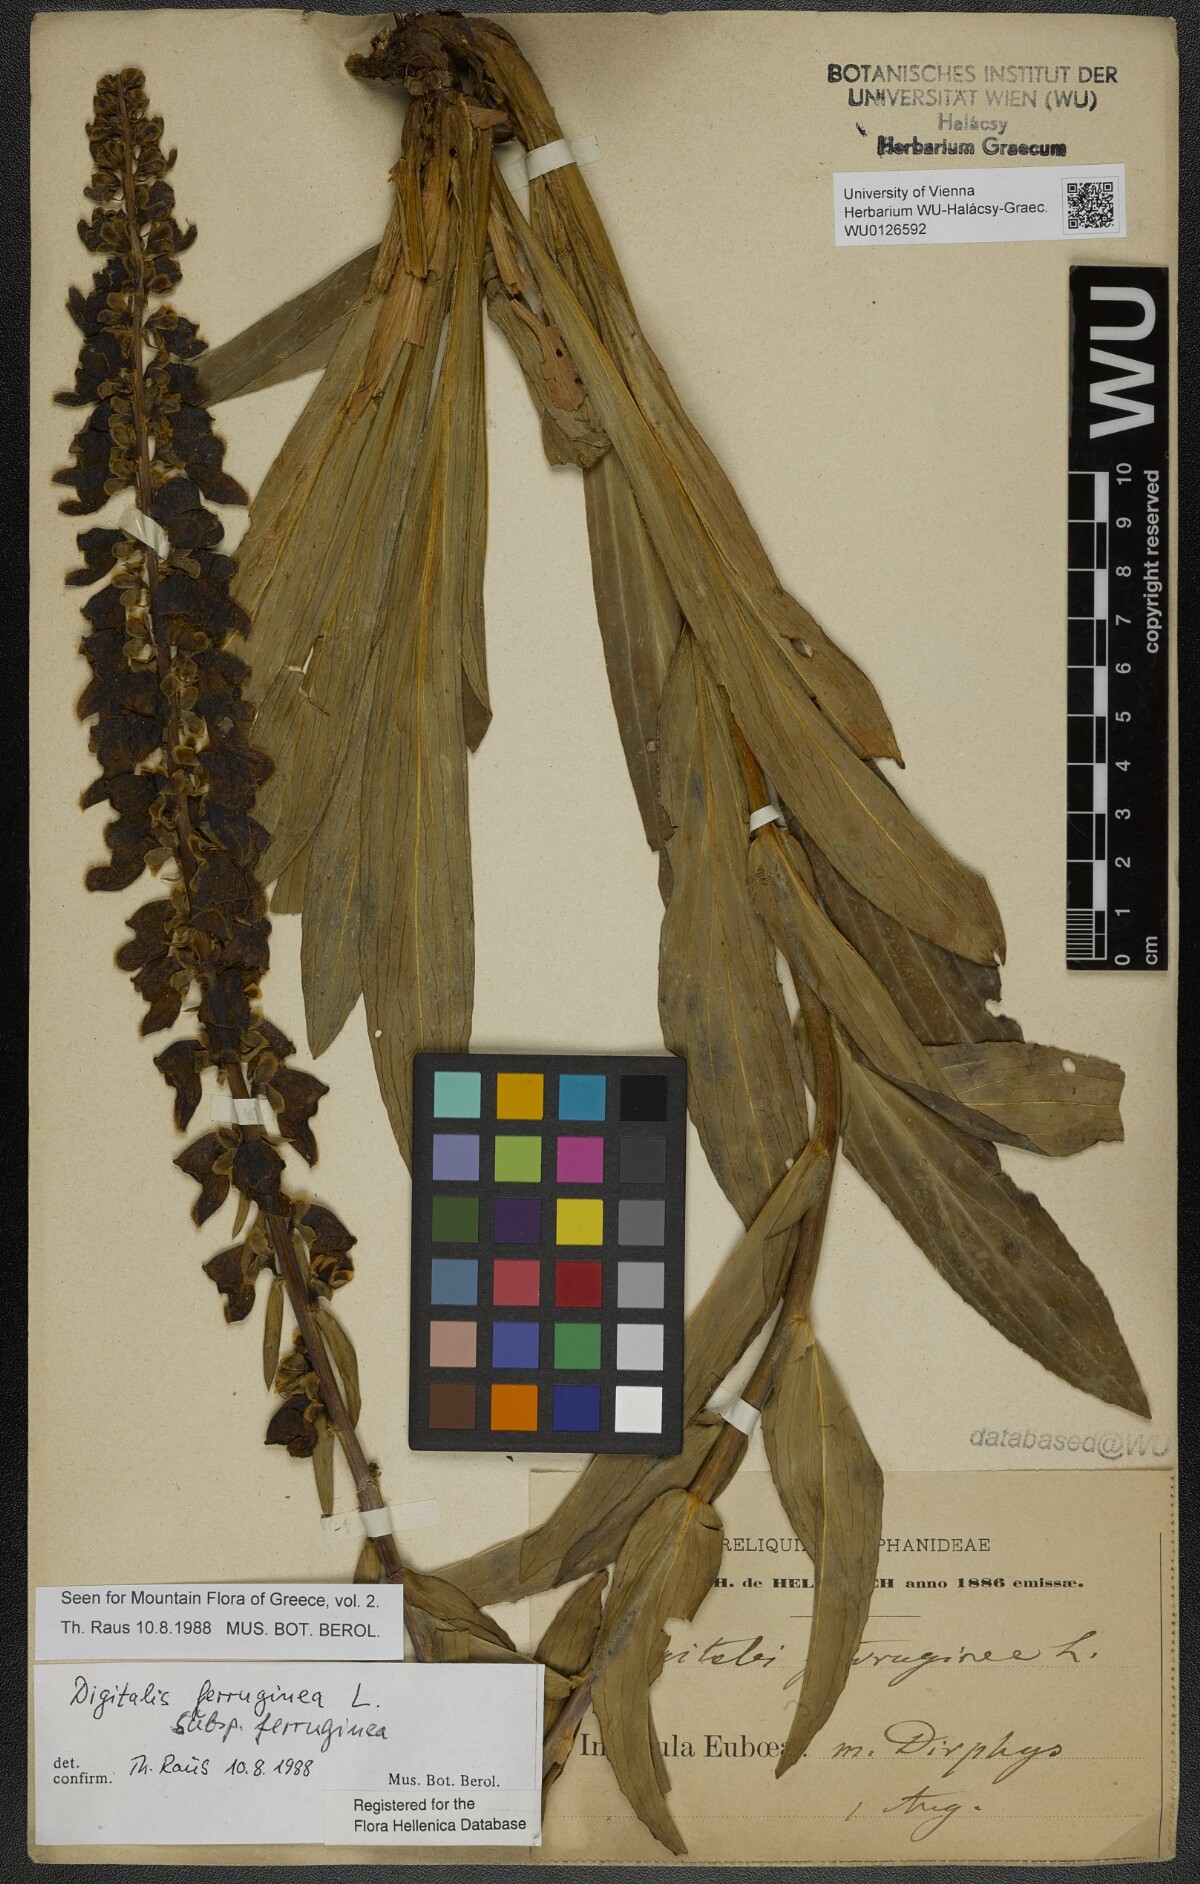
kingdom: Plantae
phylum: Tracheophyta
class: Magnoliopsida
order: Lamiales
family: Plantaginaceae
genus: Digitalis
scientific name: Digitalis ferruginea
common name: Rusty foxglove
